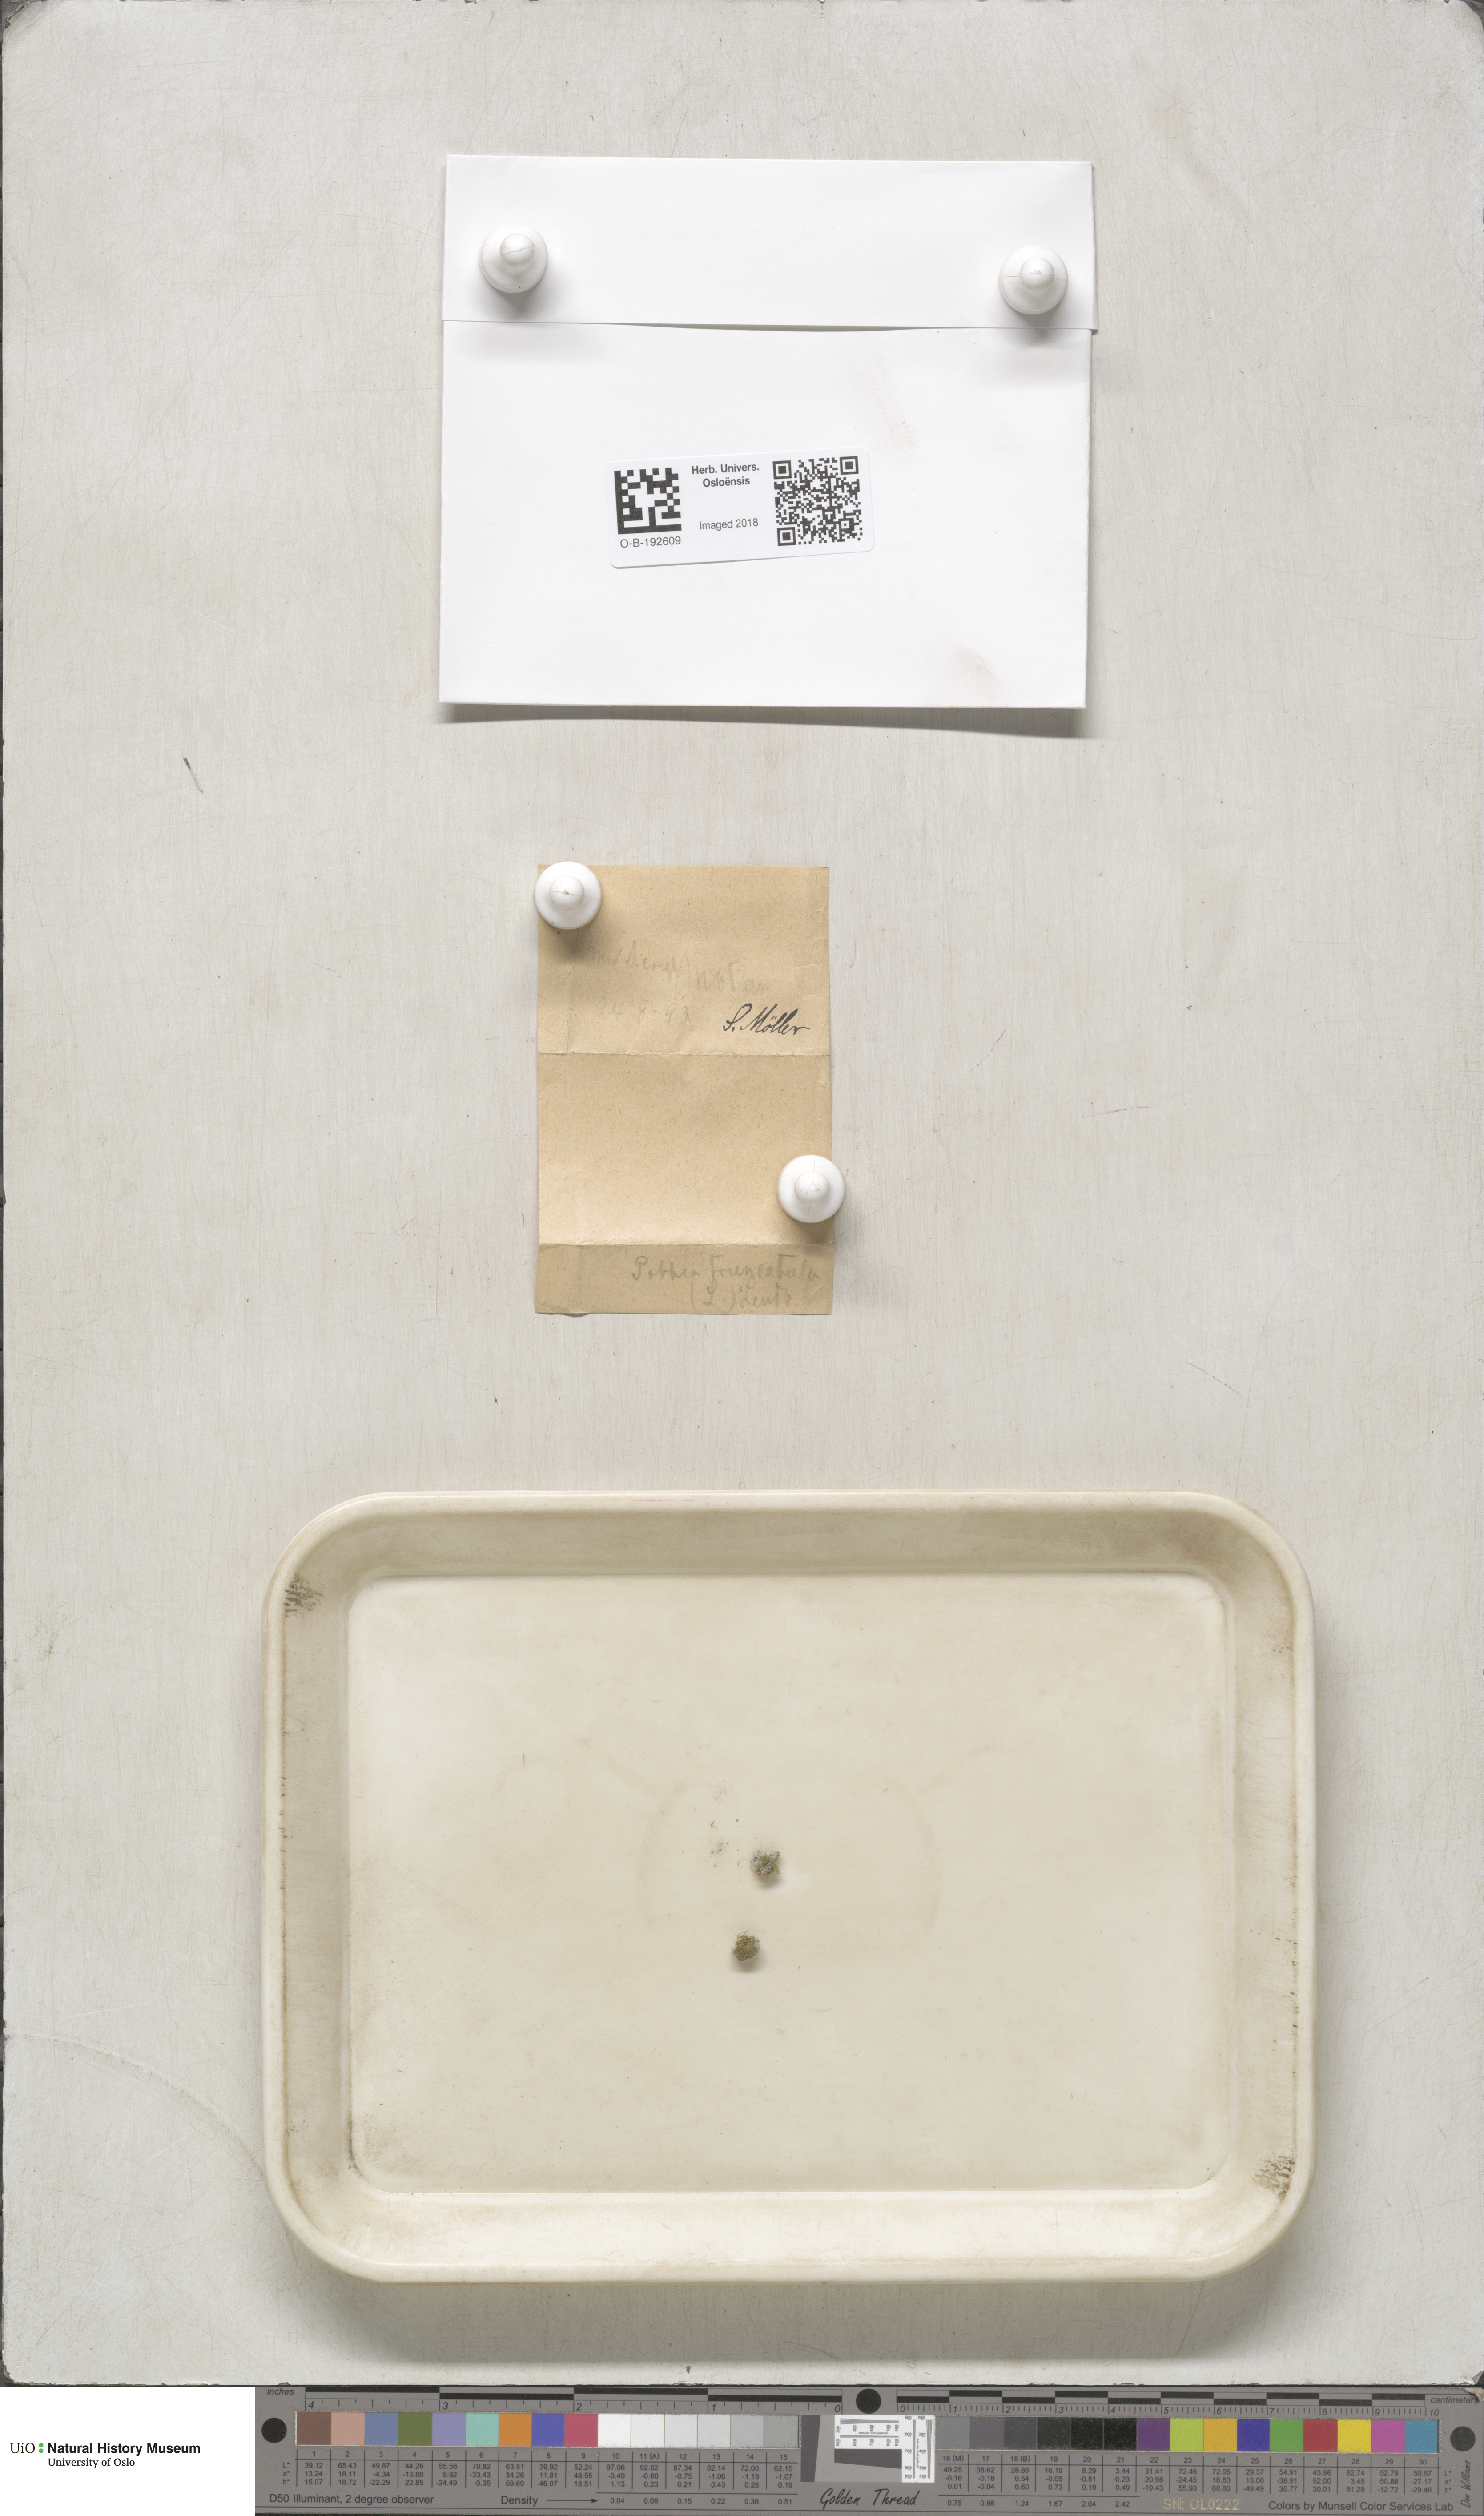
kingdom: Plantae
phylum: Bryophyta
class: Bryopsida
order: Pottiales
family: Pottiaceae
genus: Tortula
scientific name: Tortula truncata
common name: Truncated screw moss
